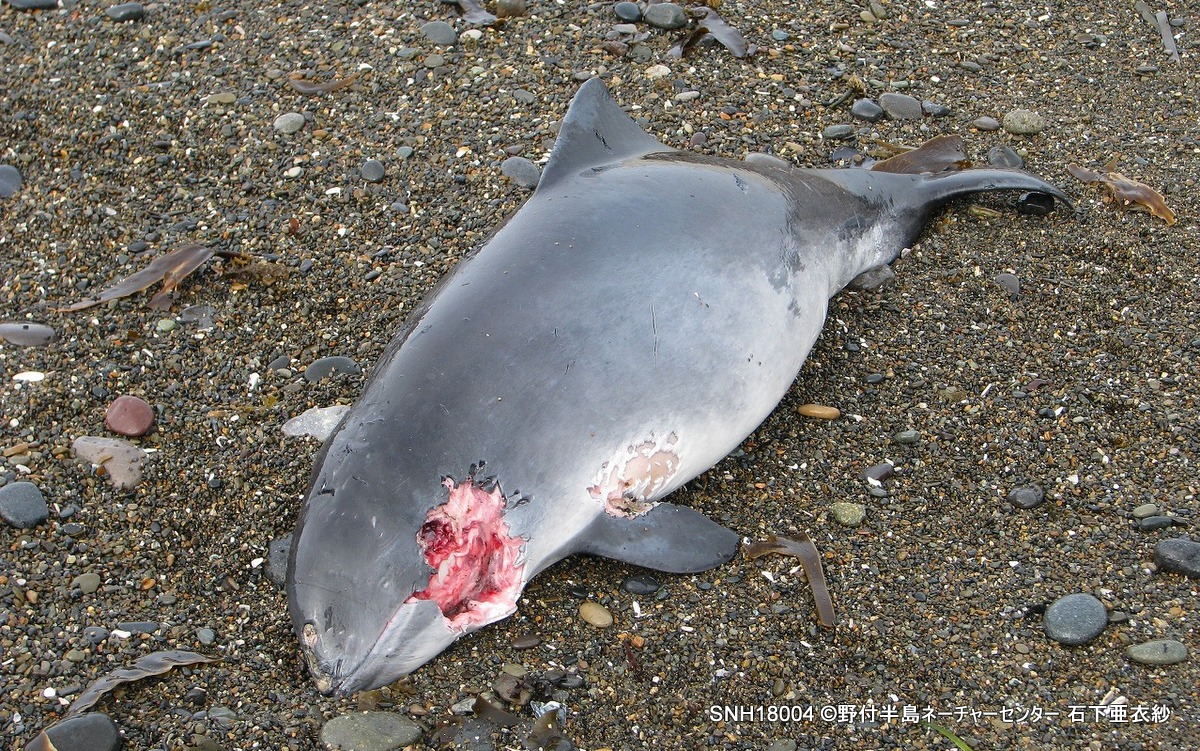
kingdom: Animalia
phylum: Chordata
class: Mammalia
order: Cetacea
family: Phocoenidae
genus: Phocoena
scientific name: Phocoena phocoena
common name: Harbour porpoise
